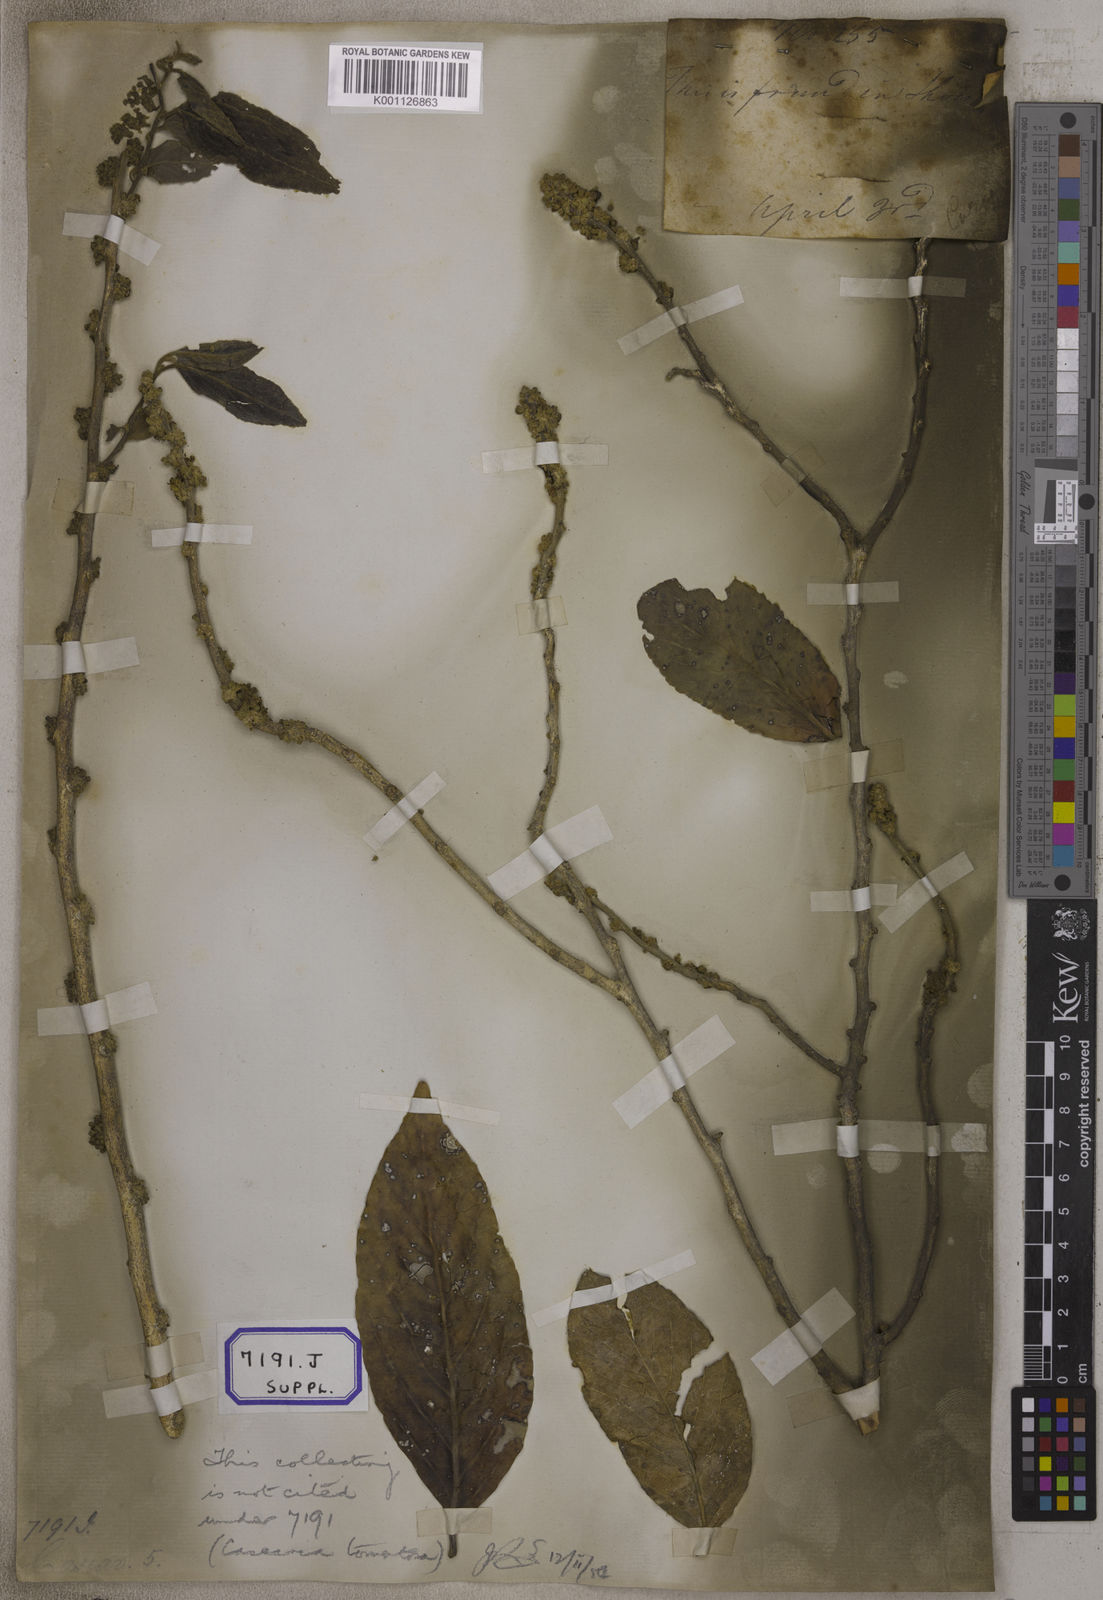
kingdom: Plantae
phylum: Tracheophyta
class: Magnoliopsida
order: Malpighiales
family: Salicaceae
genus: Casearia
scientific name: Casearia tomentosa
